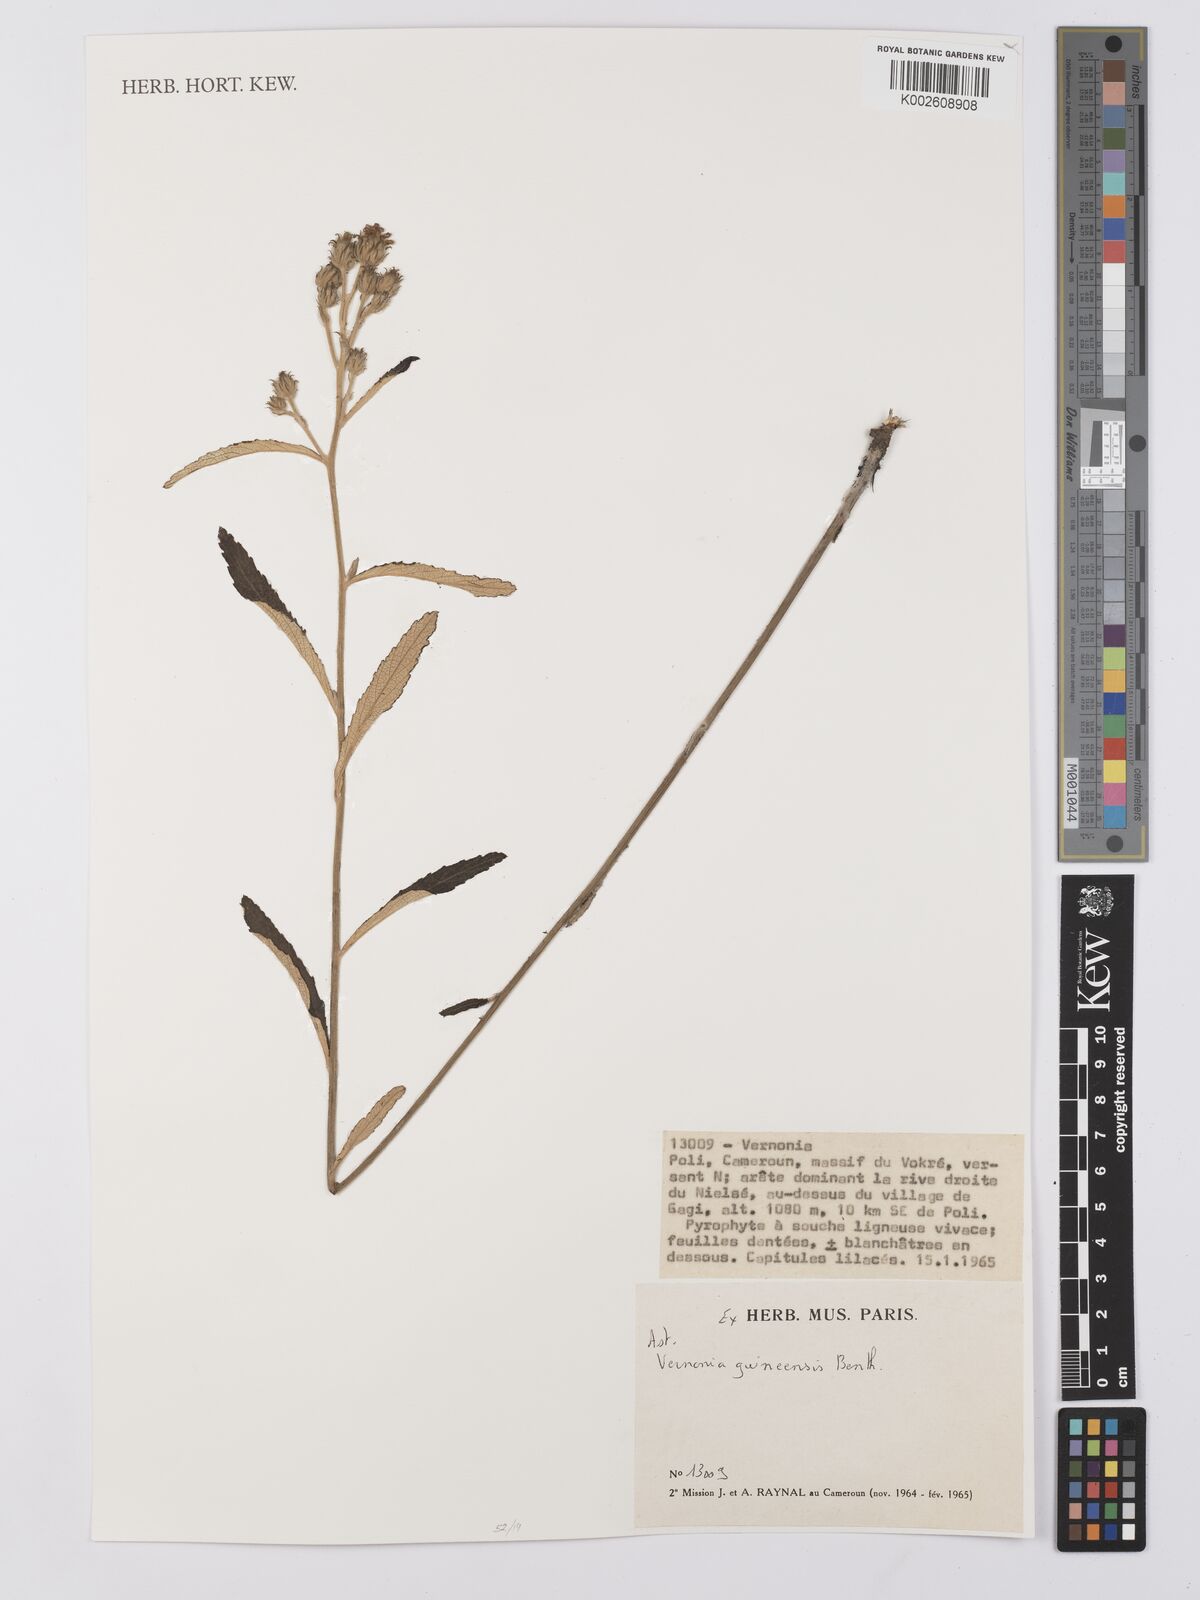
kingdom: Plantae
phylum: Tracheophyta
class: Magnoliopsida
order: Asterales
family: Asteraceae
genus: Baccharoides
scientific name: Baccharoides guineensis
